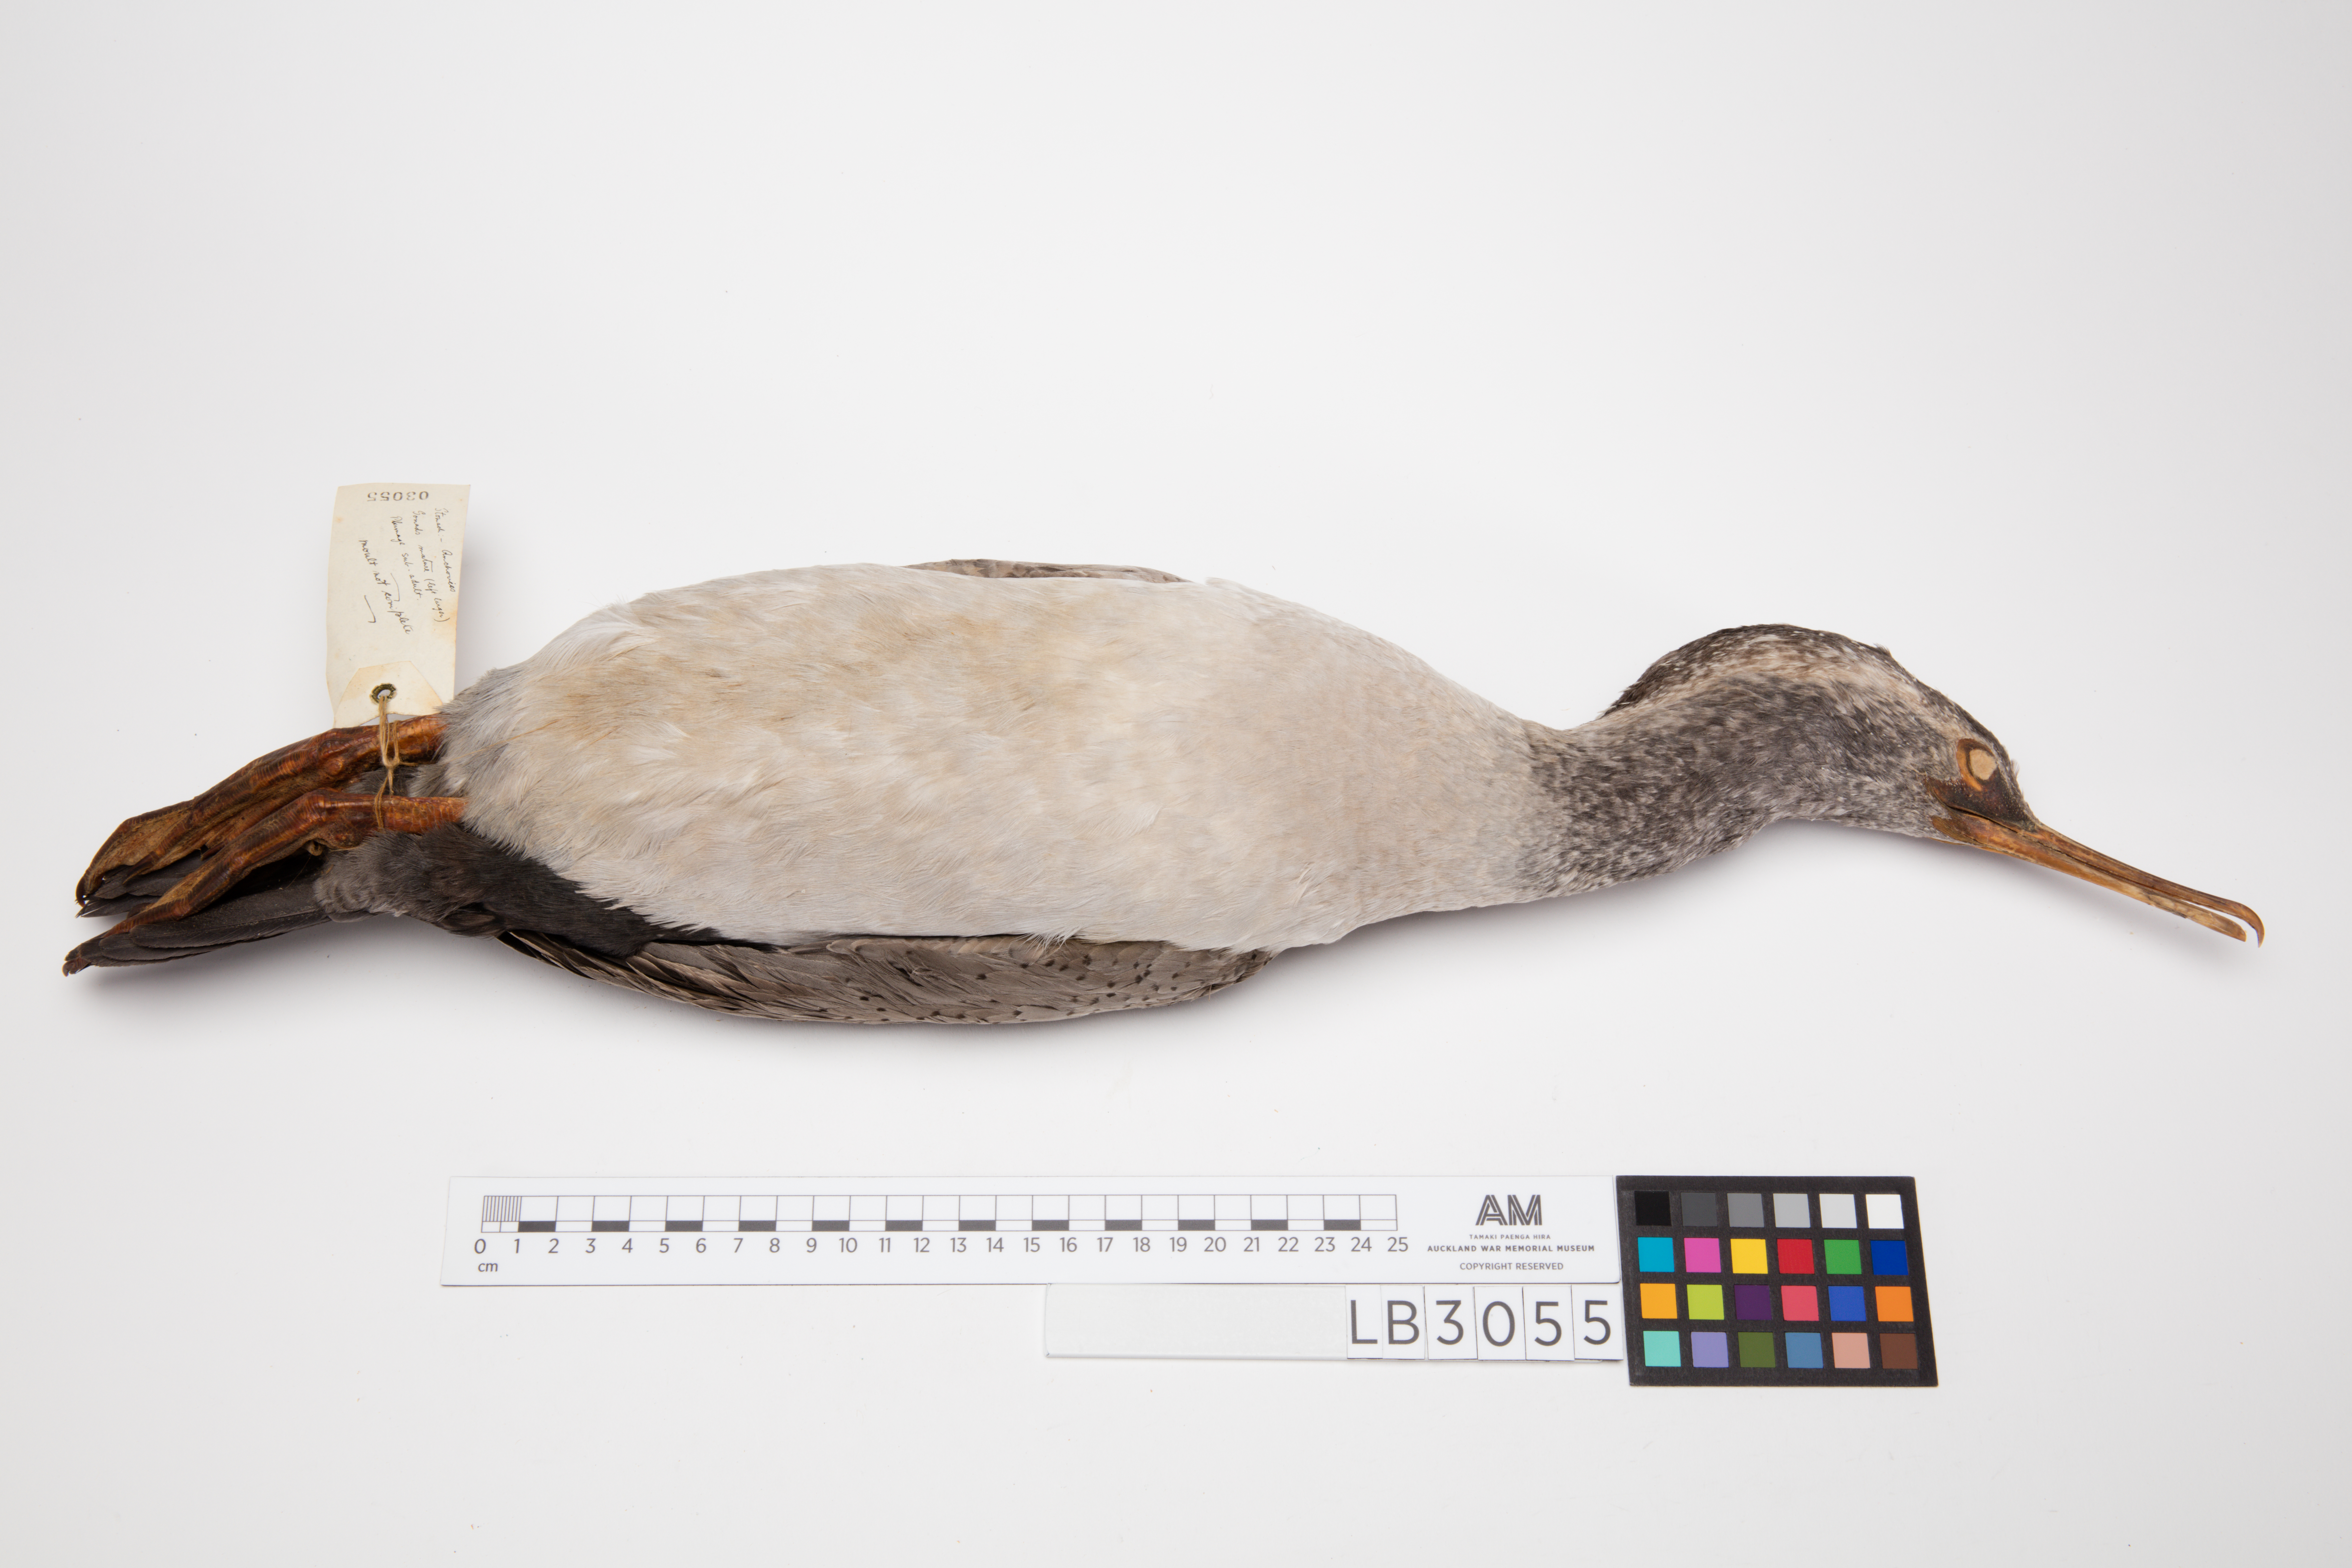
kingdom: Animalia
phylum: Chordata
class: Aves
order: Suliformes
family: Phalacrocoracidae
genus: Phalacrocorax
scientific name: Phalacrocorax punctatus
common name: Spotted shag
